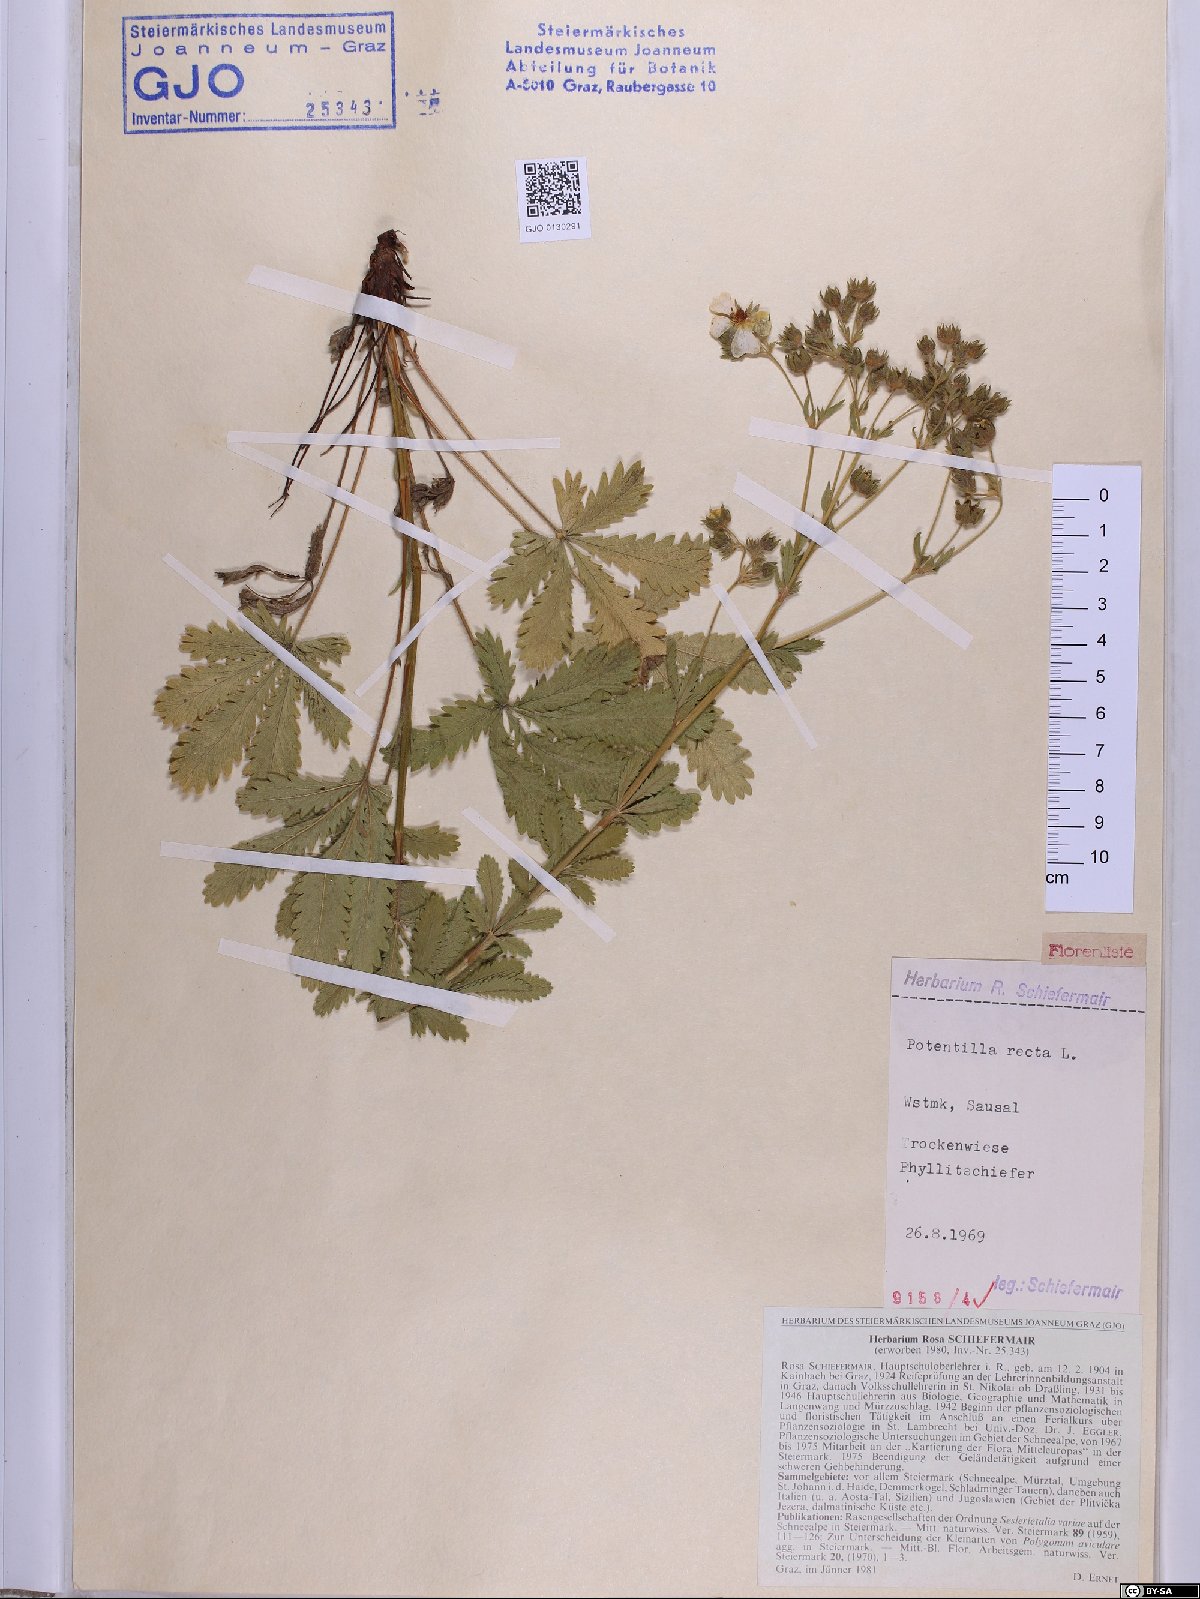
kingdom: Plantae
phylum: Tracheophyta
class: Magnoliopsida
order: Rosales
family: Rosaceae
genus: Potentilla
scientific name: Potentilla recta
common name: Sulphur cinquefoil
